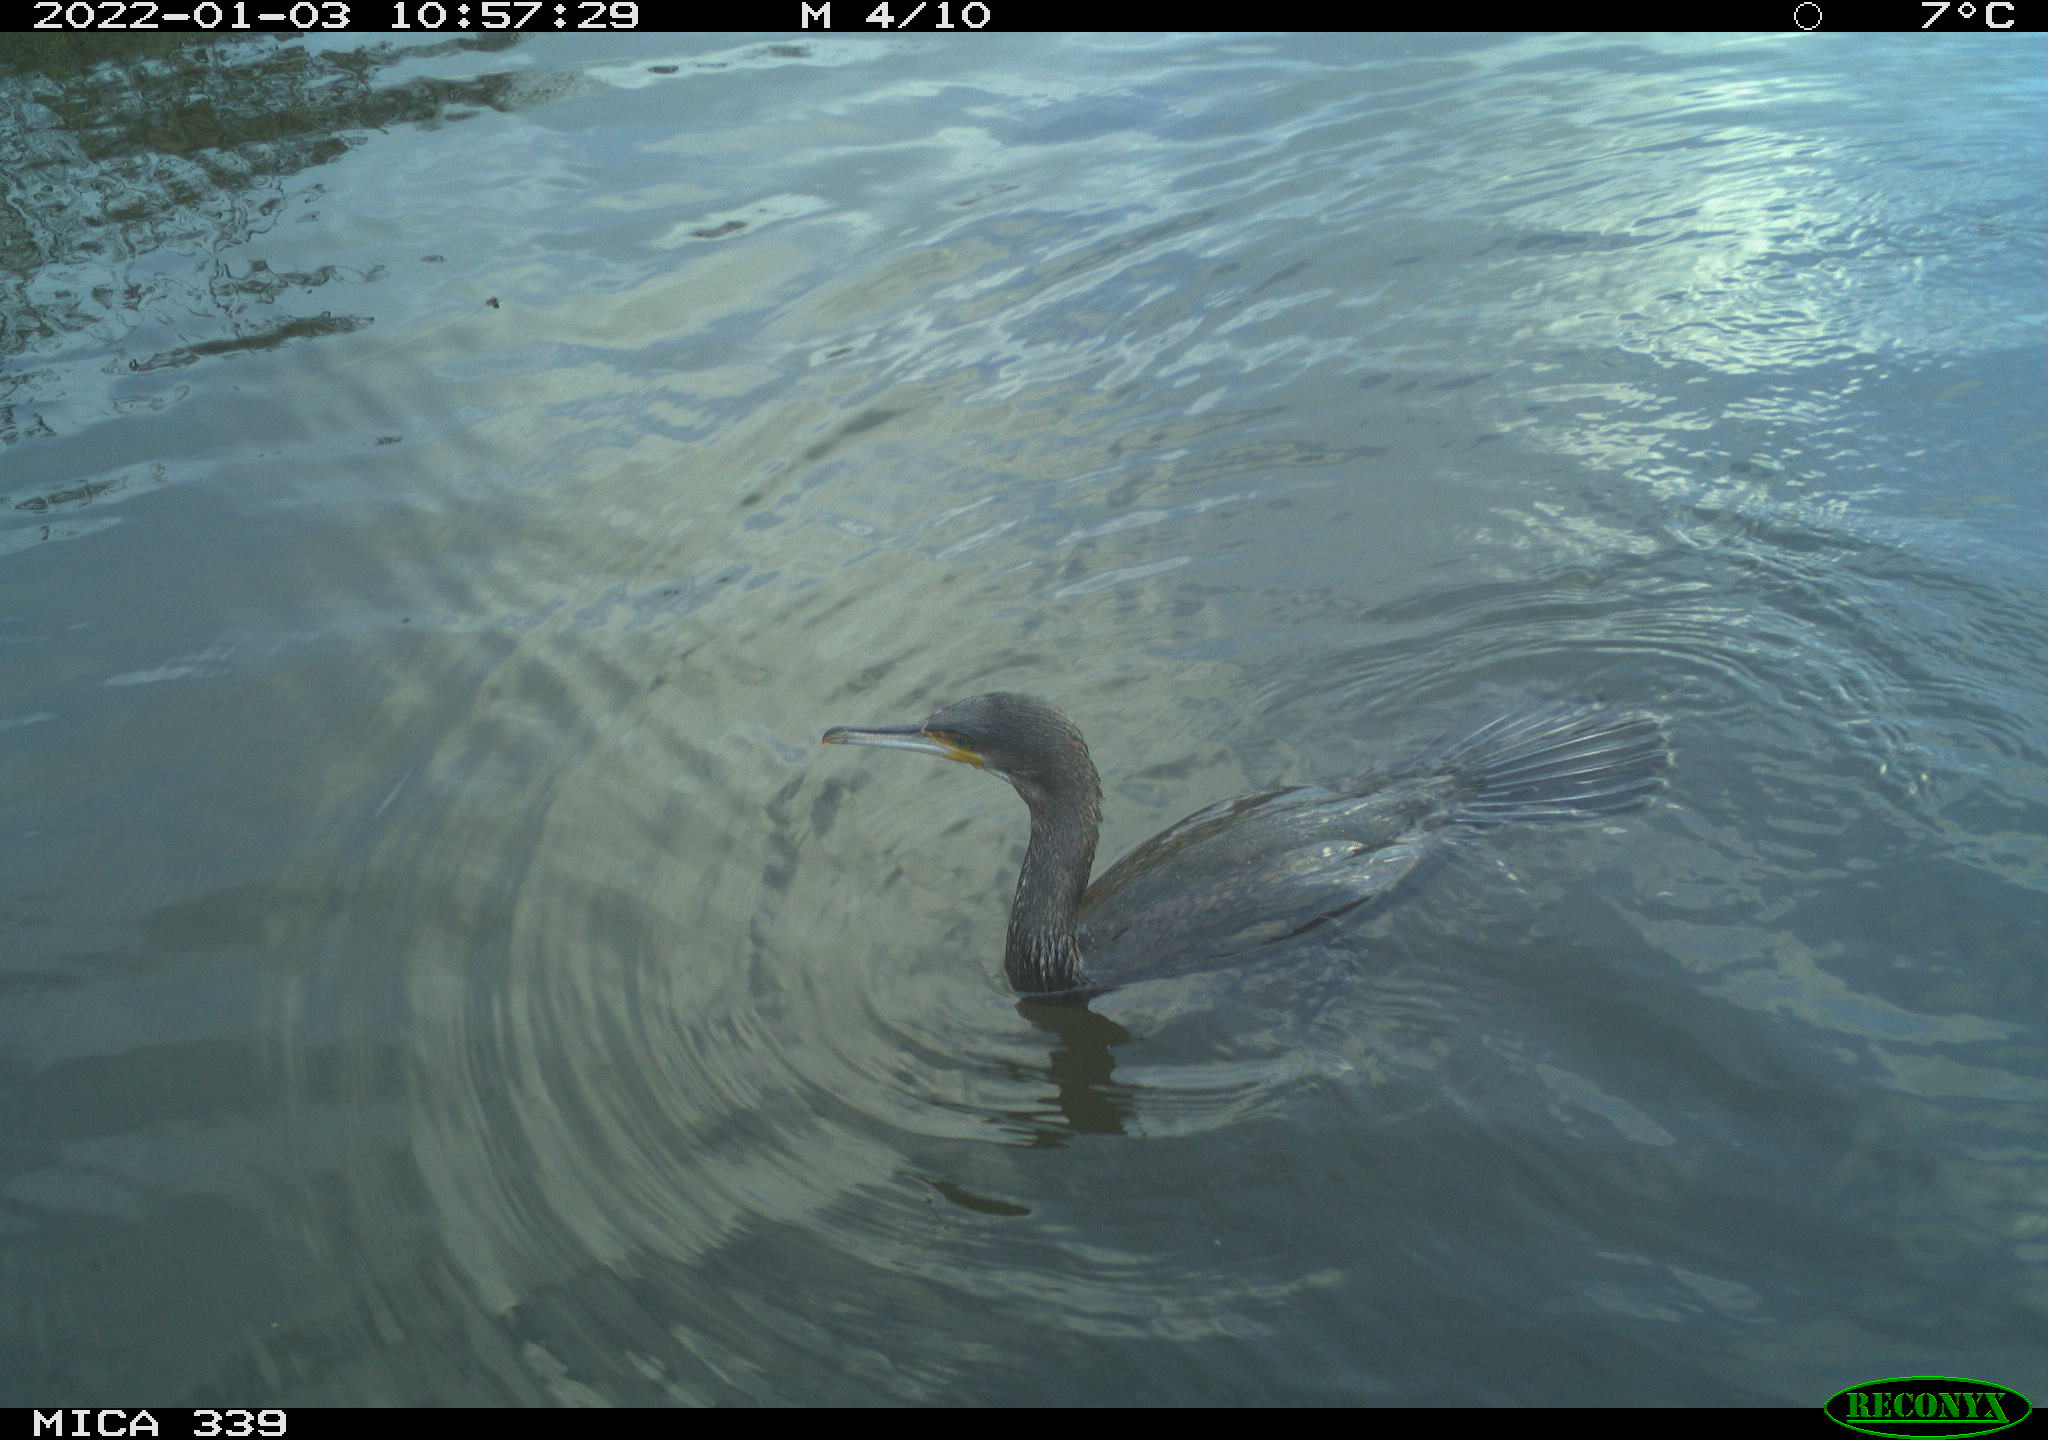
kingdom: Animalia
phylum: Chordata
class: Aves
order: Suliformes
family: Phalacrocoracidae
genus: Phalacrocorax
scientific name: Phalacrocorax carbo
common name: Great cormorant
